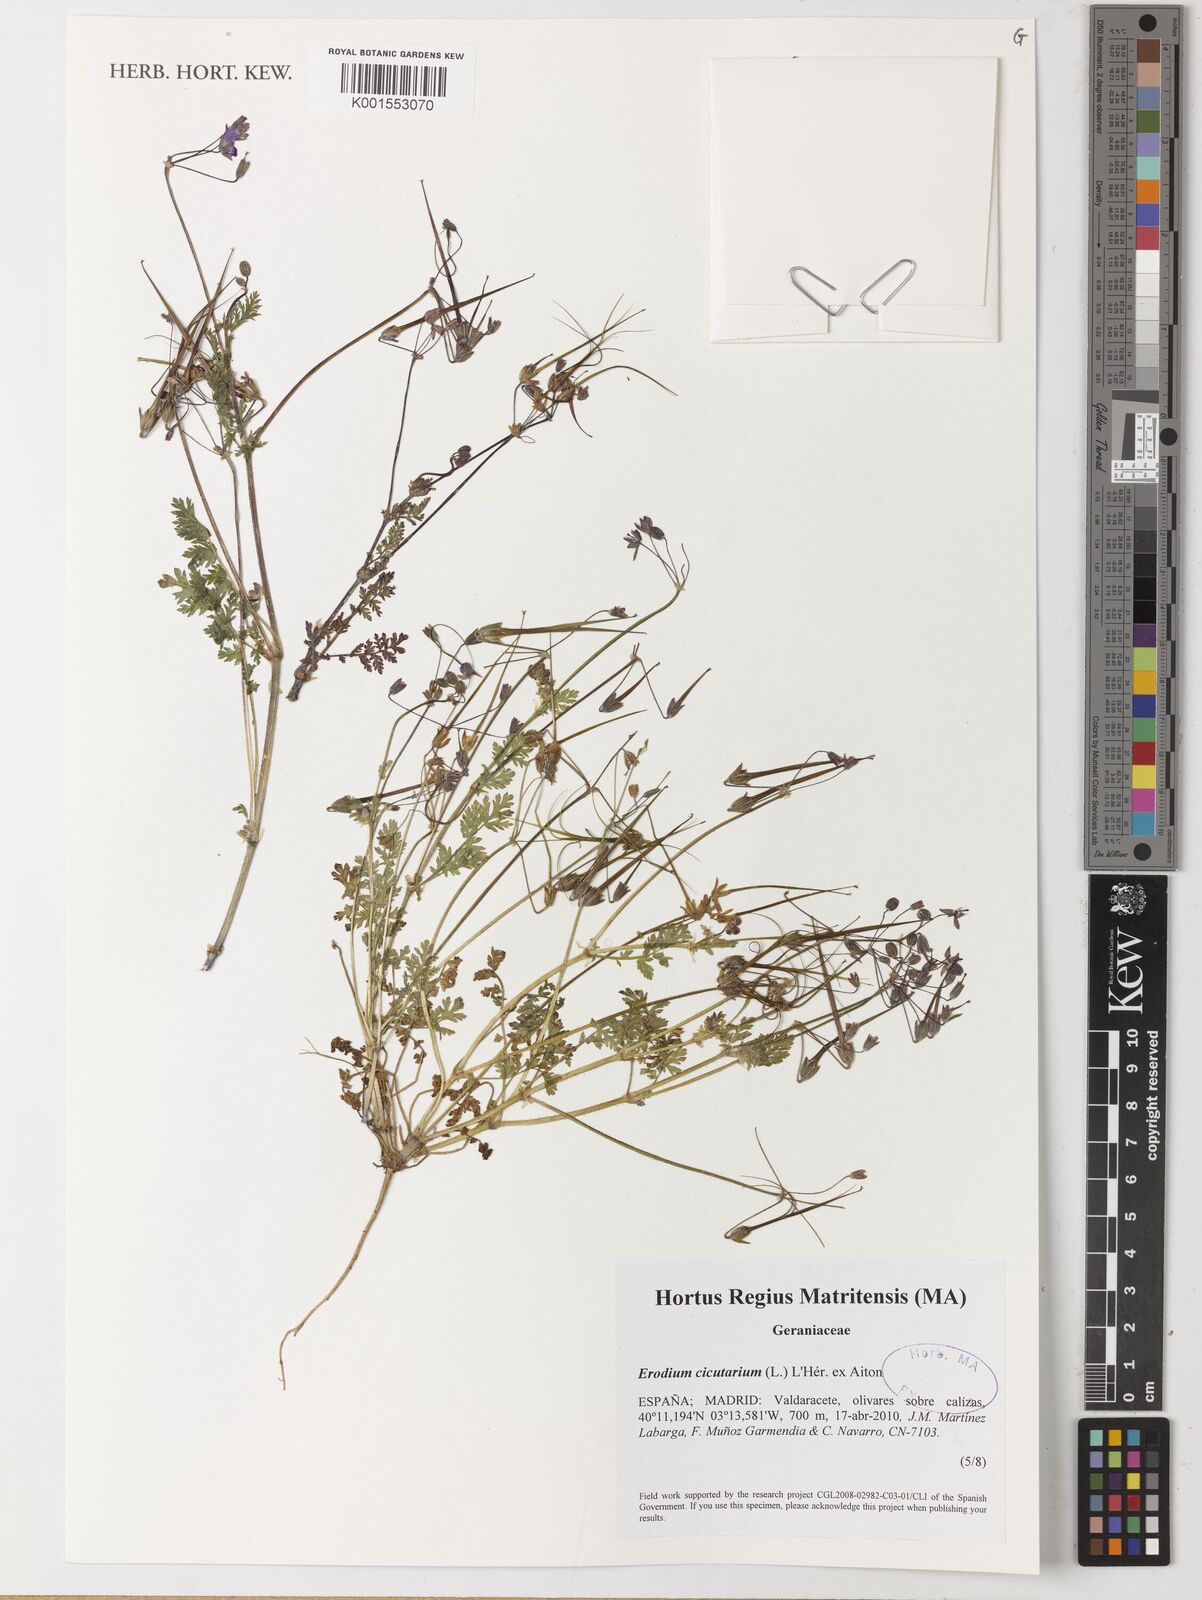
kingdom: Plantae
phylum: Tracheophyta
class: Magnoliopsida
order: Geraniales
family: Geraniaceae
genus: Erodium
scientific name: Erodium cicutarium
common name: Common stork's-bill
